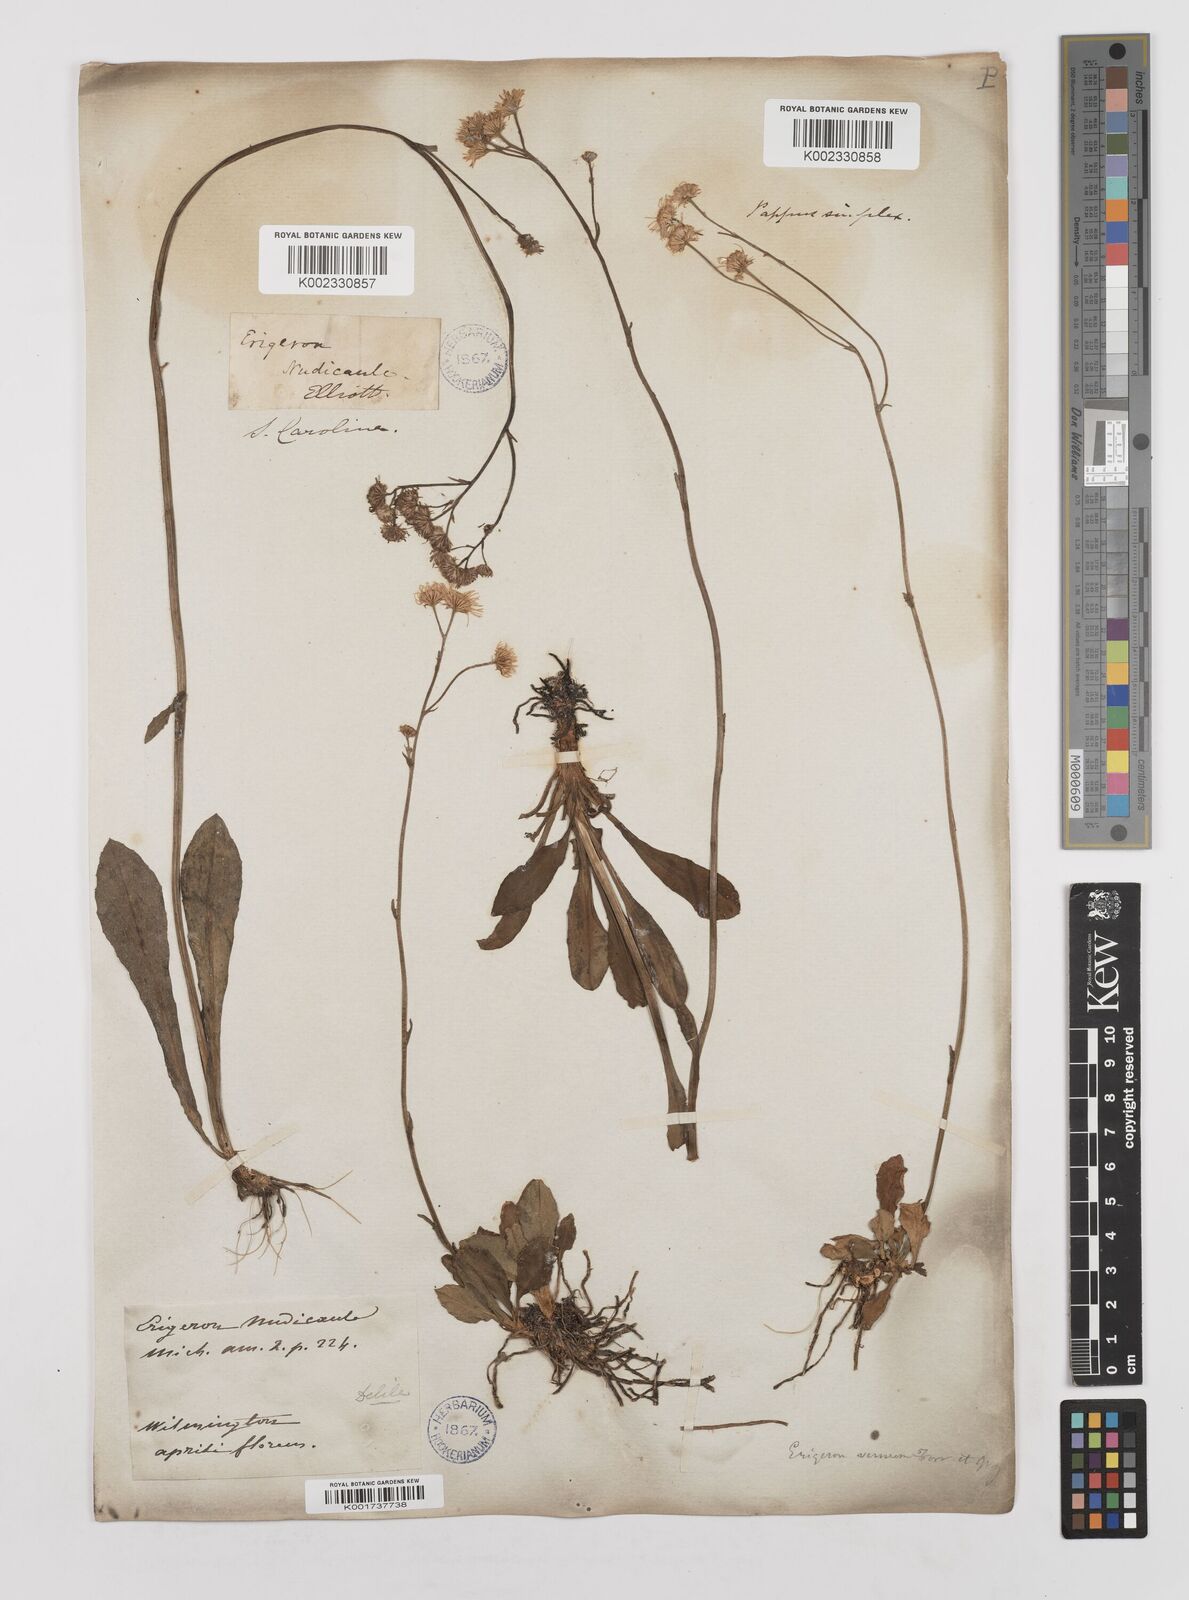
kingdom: Plantae
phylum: Tracheophyta
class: Magnoliopsida
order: Asterales
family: Asteraceae
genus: Erigeron
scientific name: Erigeron vernus
